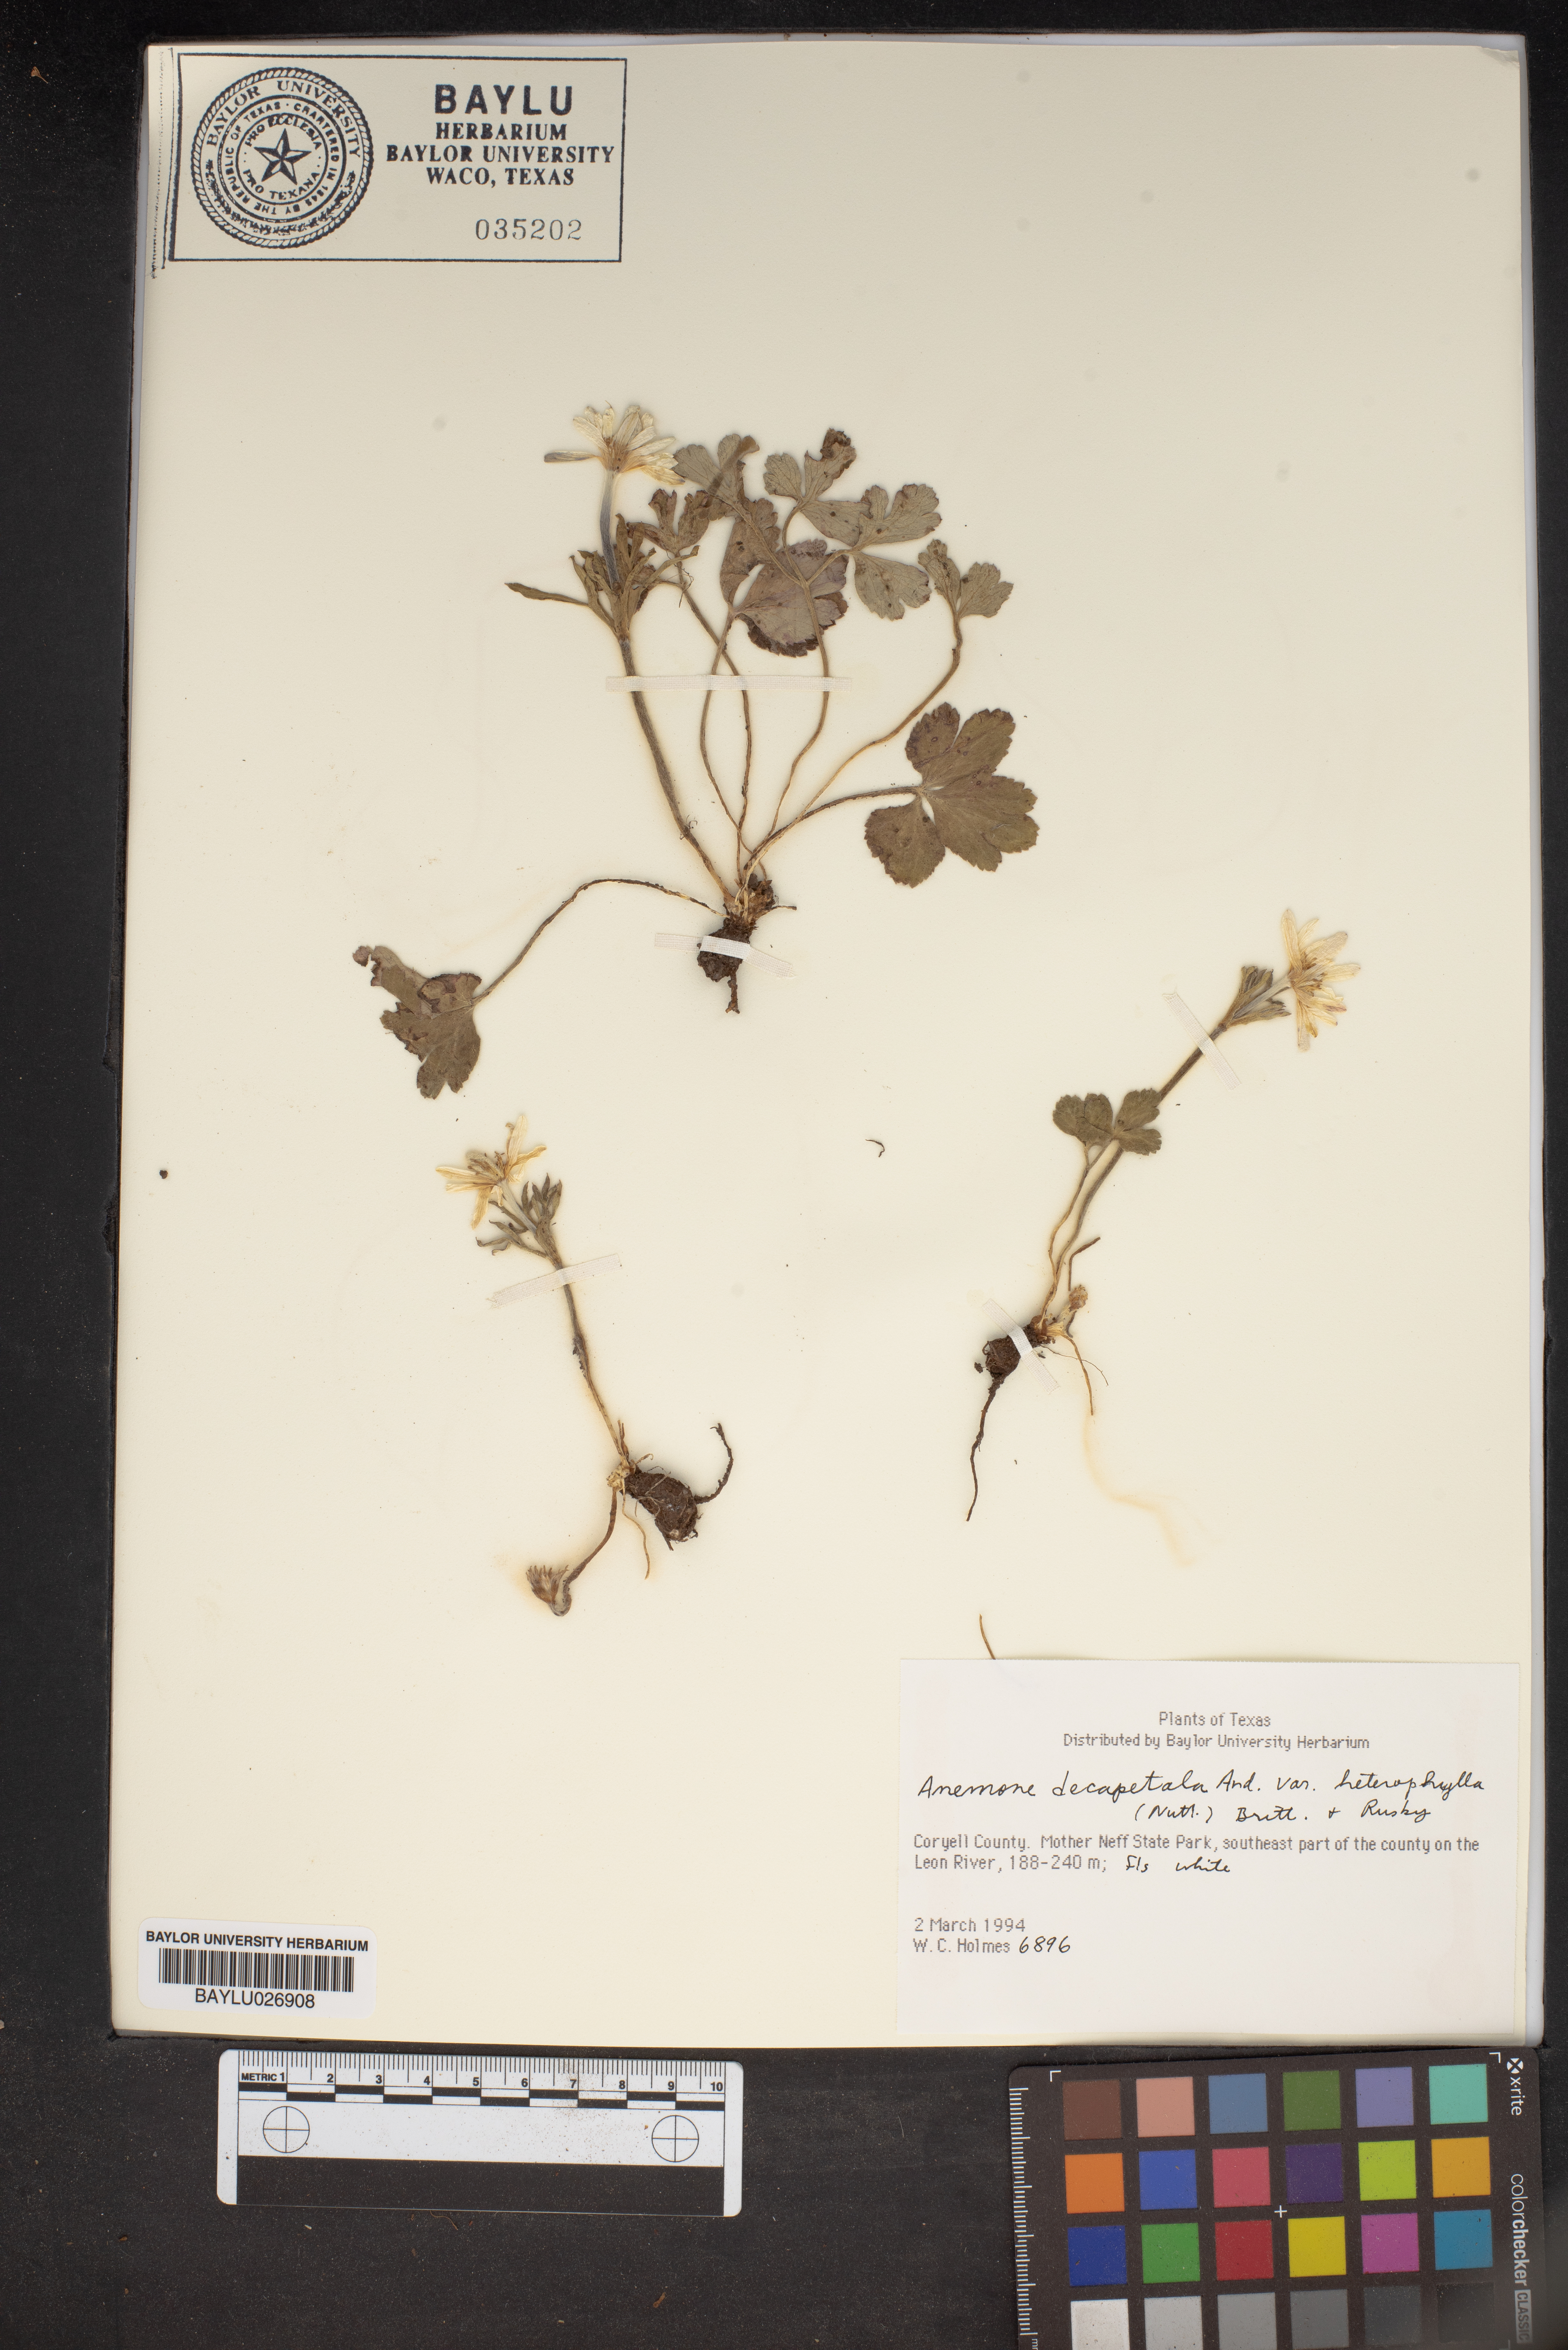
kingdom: Plantae
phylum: Tracheophyta
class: Magnoliopsida
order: Ranunculales
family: Ranunculaceae
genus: Anemone
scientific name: Anemone berlandieri
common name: Ten-petal anemone
